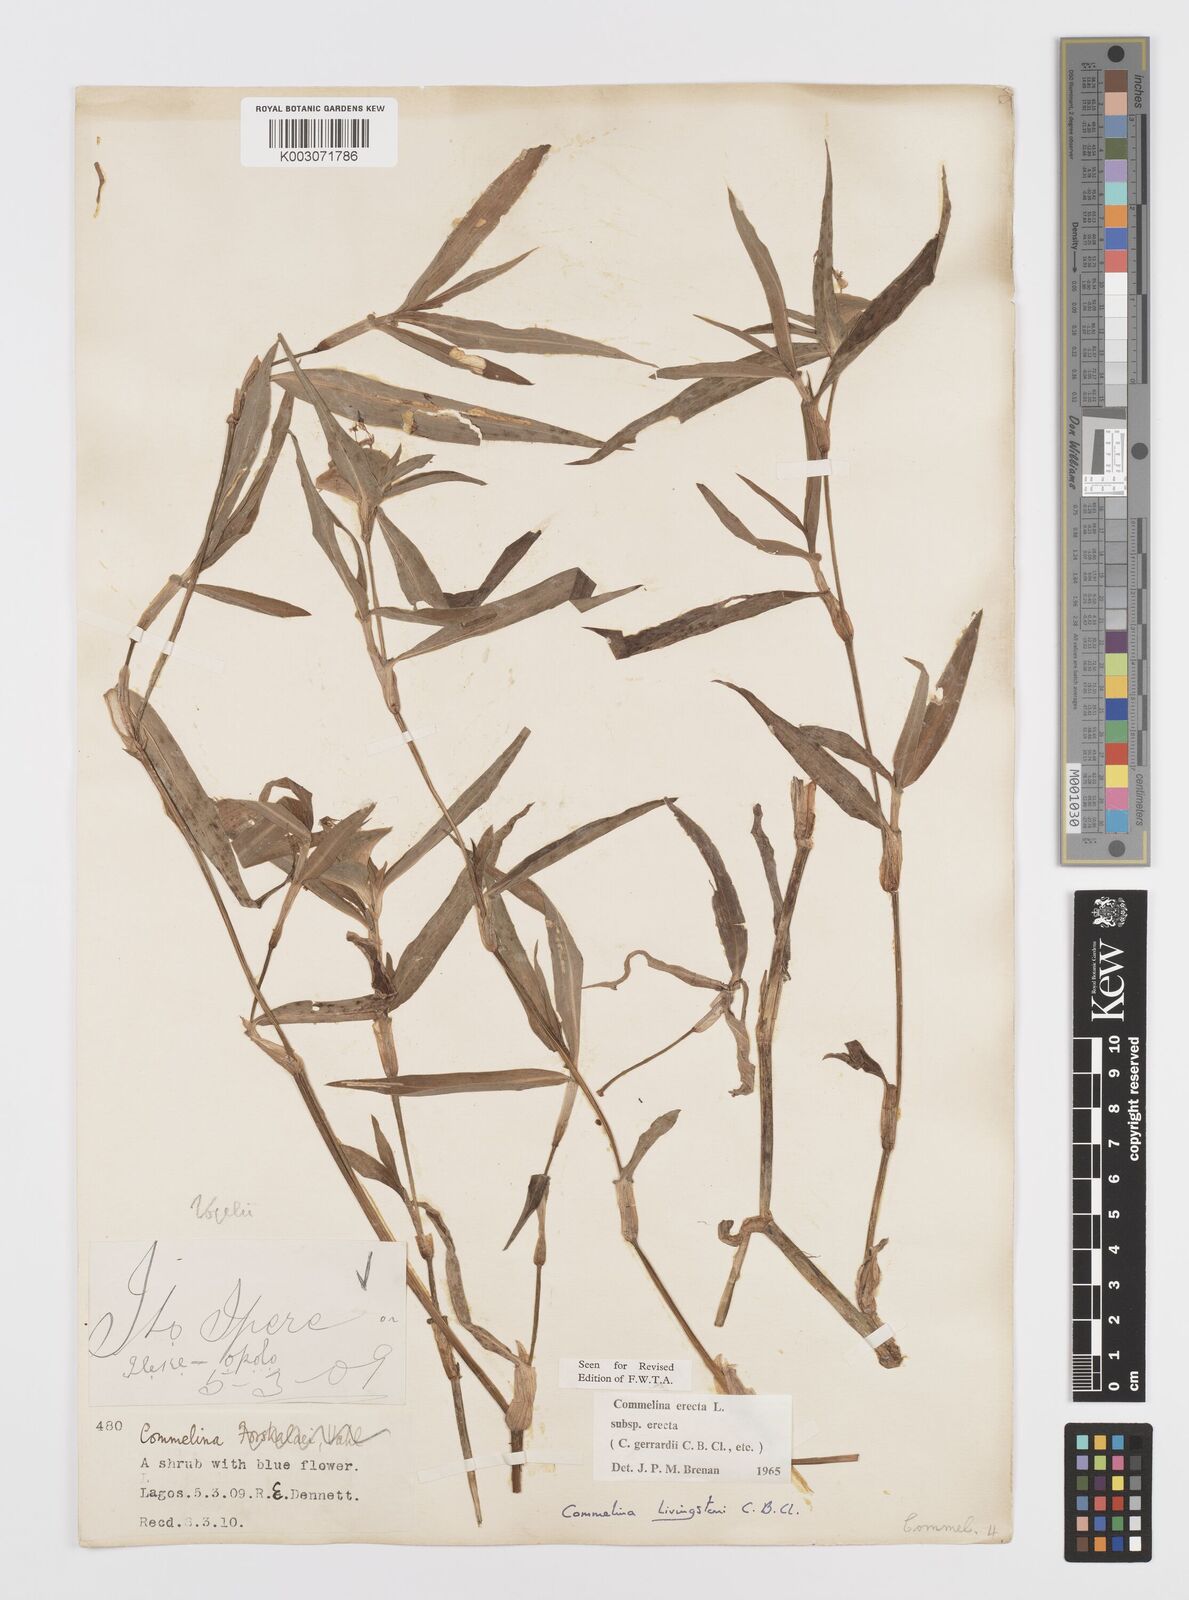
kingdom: Plantae
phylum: Tracheophyta
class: Liliopsida
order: Commelinales
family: Commelinaceae
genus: Commelina
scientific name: Commelina erecta
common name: Blousel blommetjie
